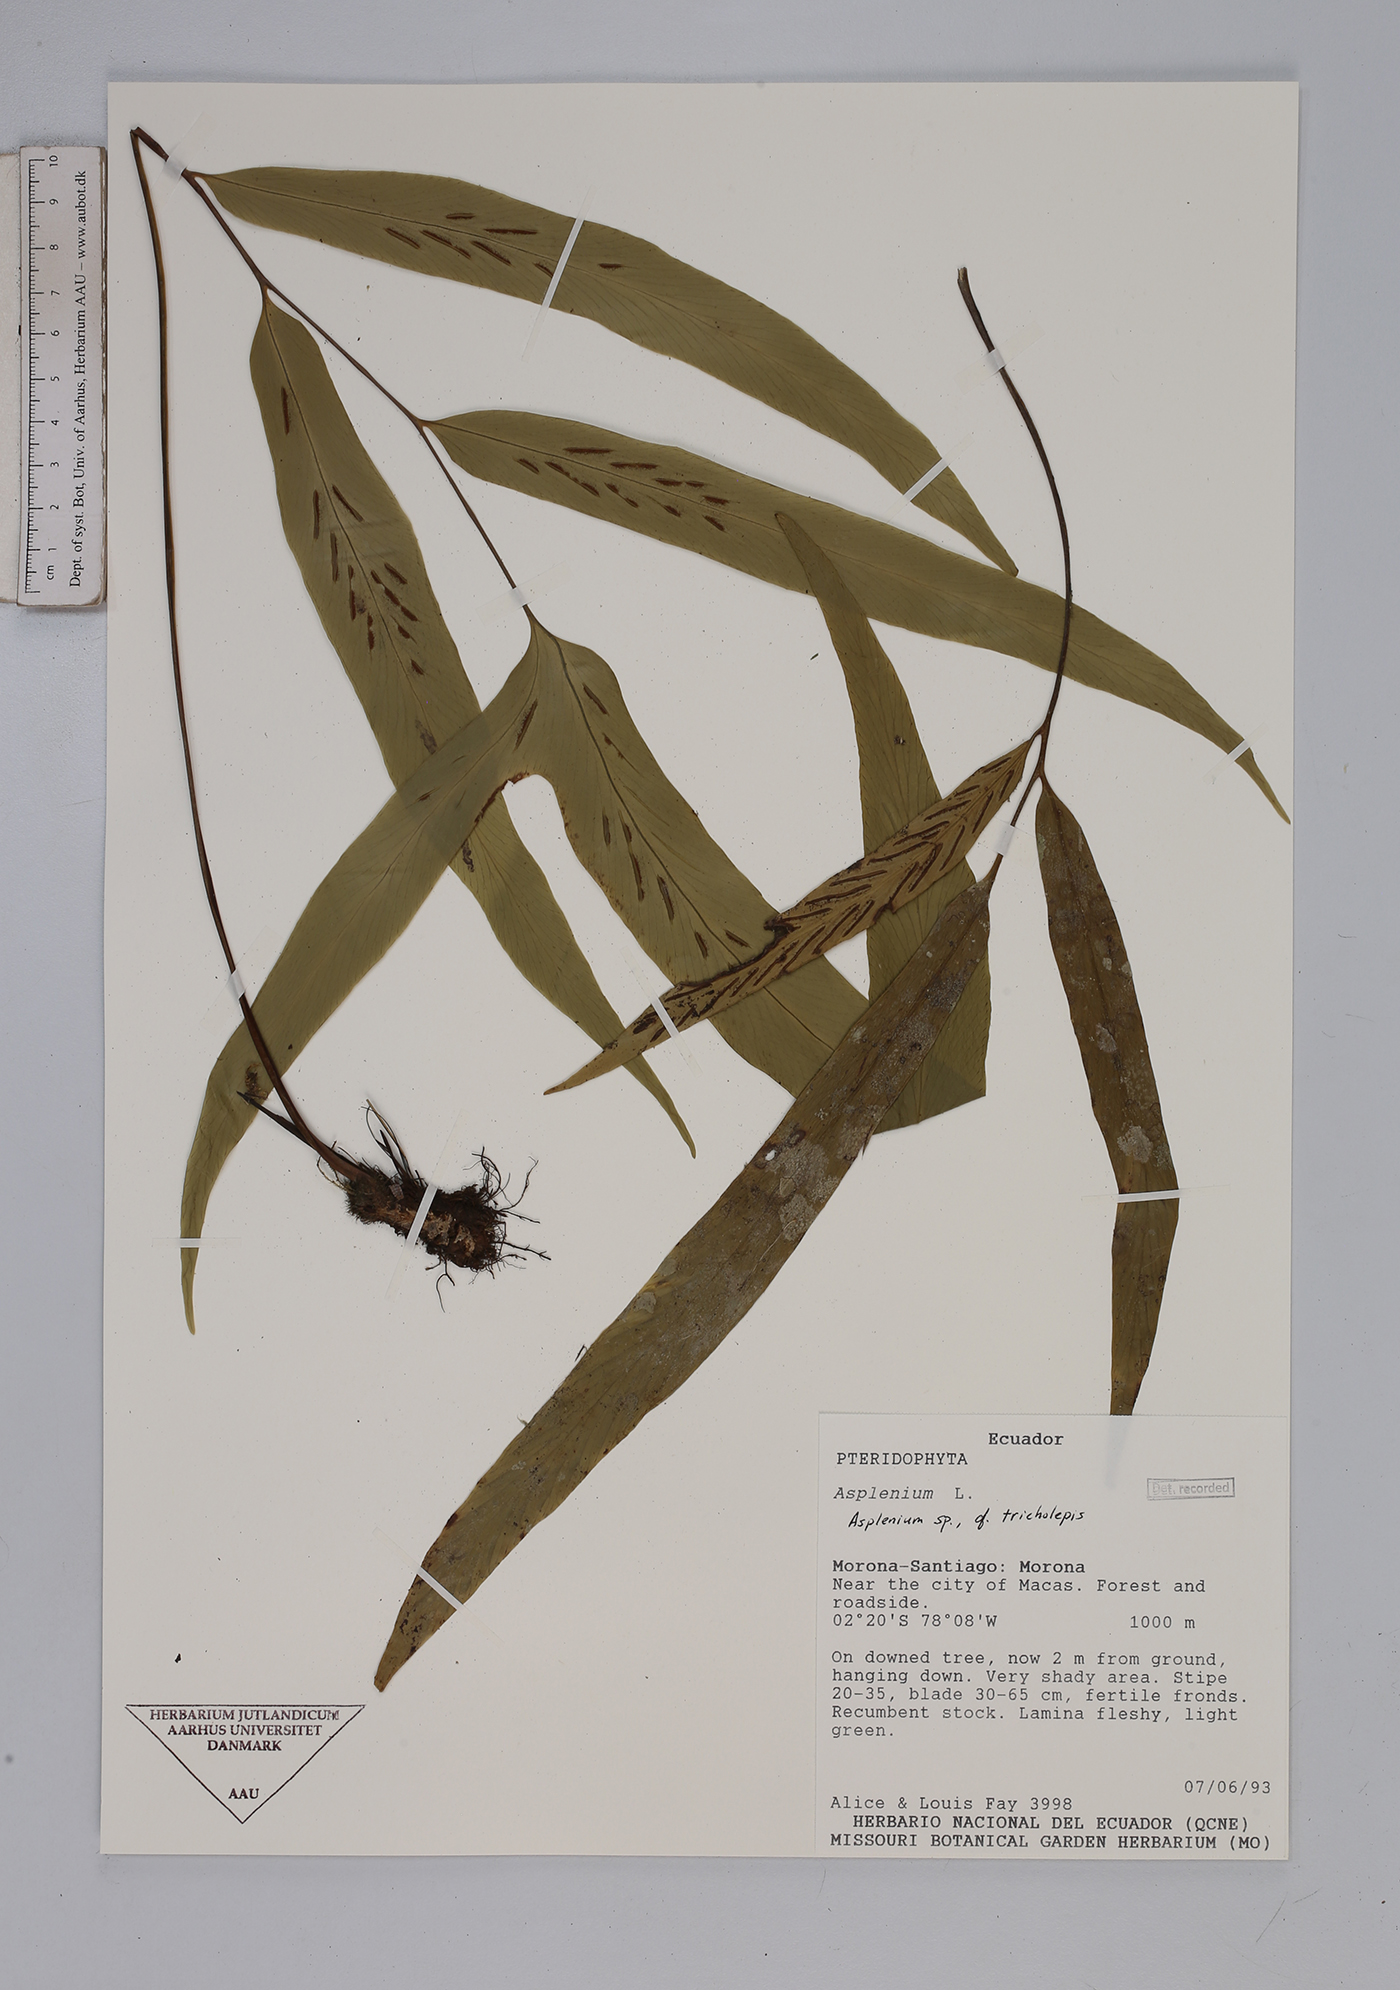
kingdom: Plantae
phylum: Tracheophyta
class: Polypodiopsida
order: Polypodiales
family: Aspleniaceae
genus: Asplenium
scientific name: Asplenium tricholepis
